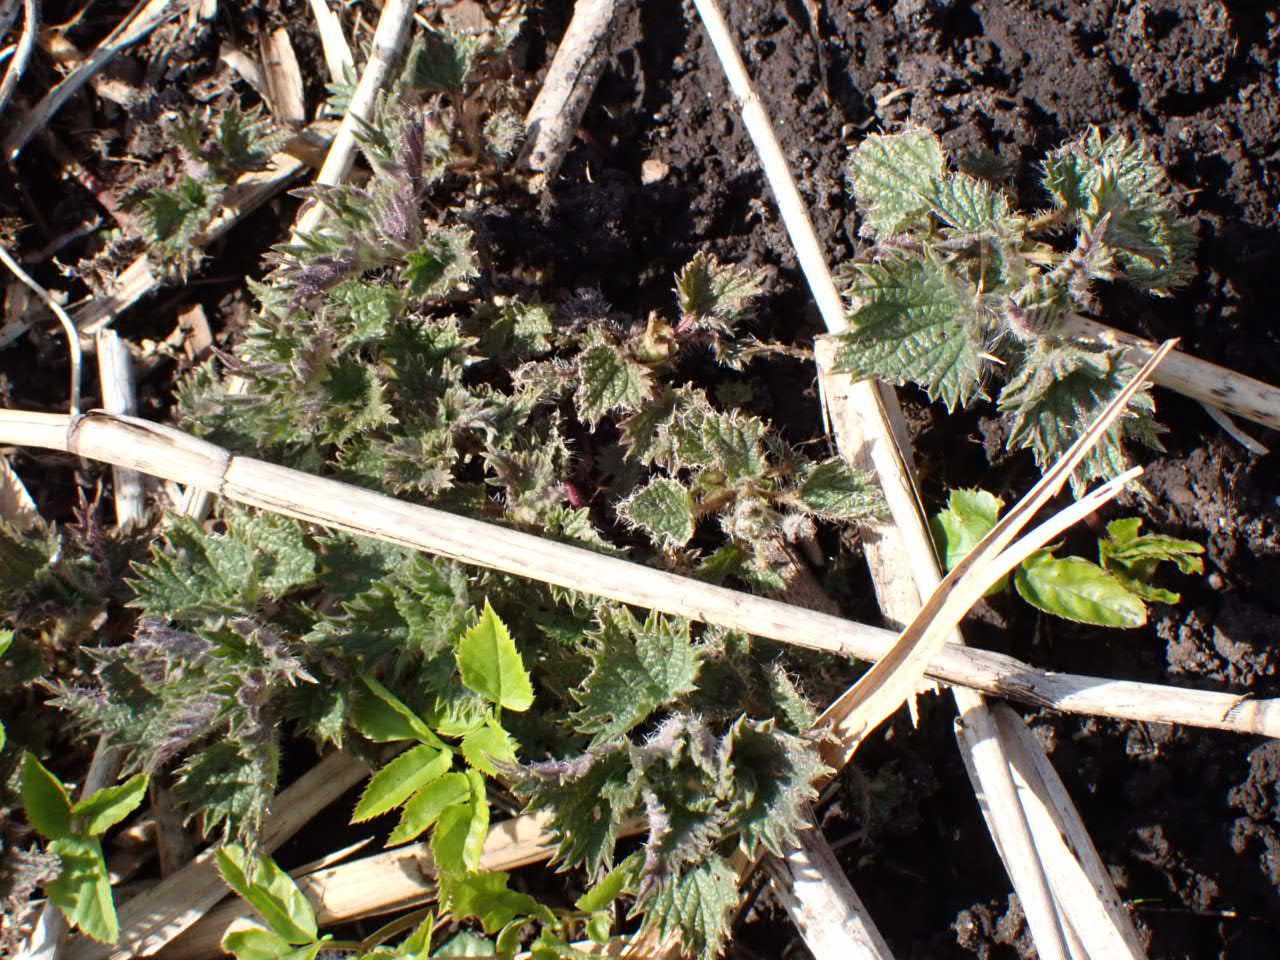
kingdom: Plantae
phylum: Tracheophyta
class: Magnoliopsida
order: Rosales
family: Urticaceae
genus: Urtica
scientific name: Urtica dioica
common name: Stor nælde
